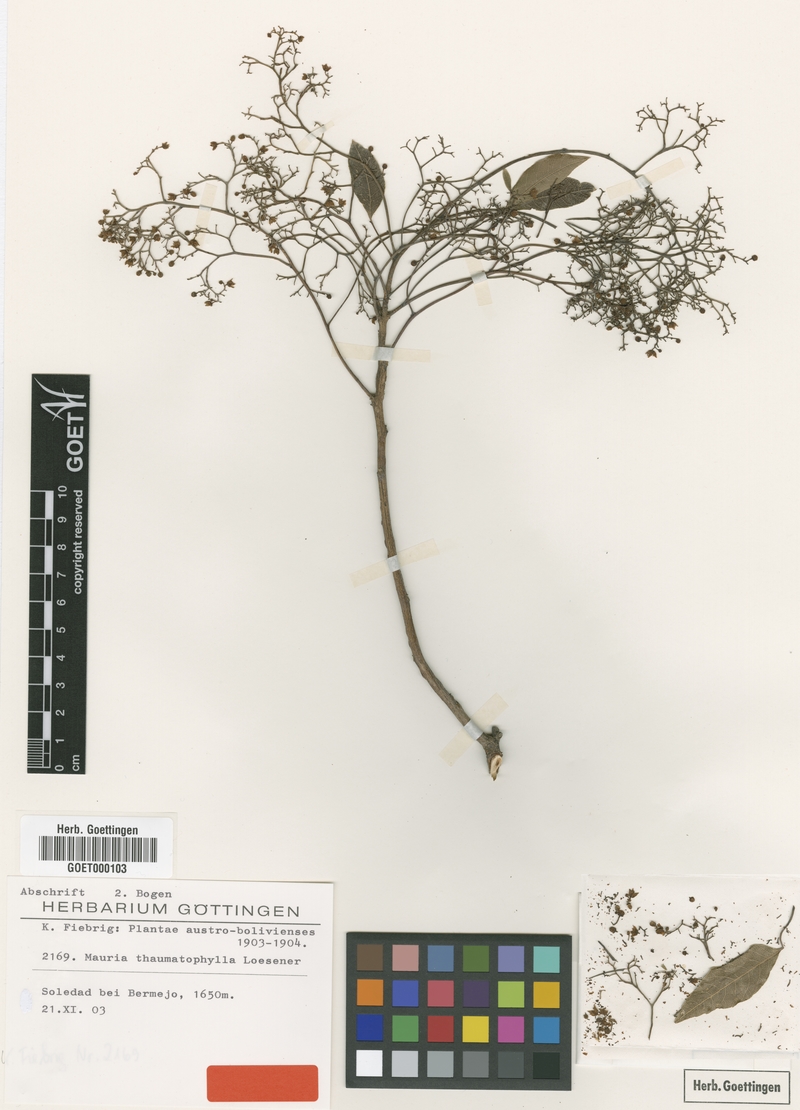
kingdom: Plantae
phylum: Tracheophyta
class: Magnoliopsida
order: Sapindales
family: Anacardiaceae
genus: Mauria
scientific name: Mauria thaumatophylla
